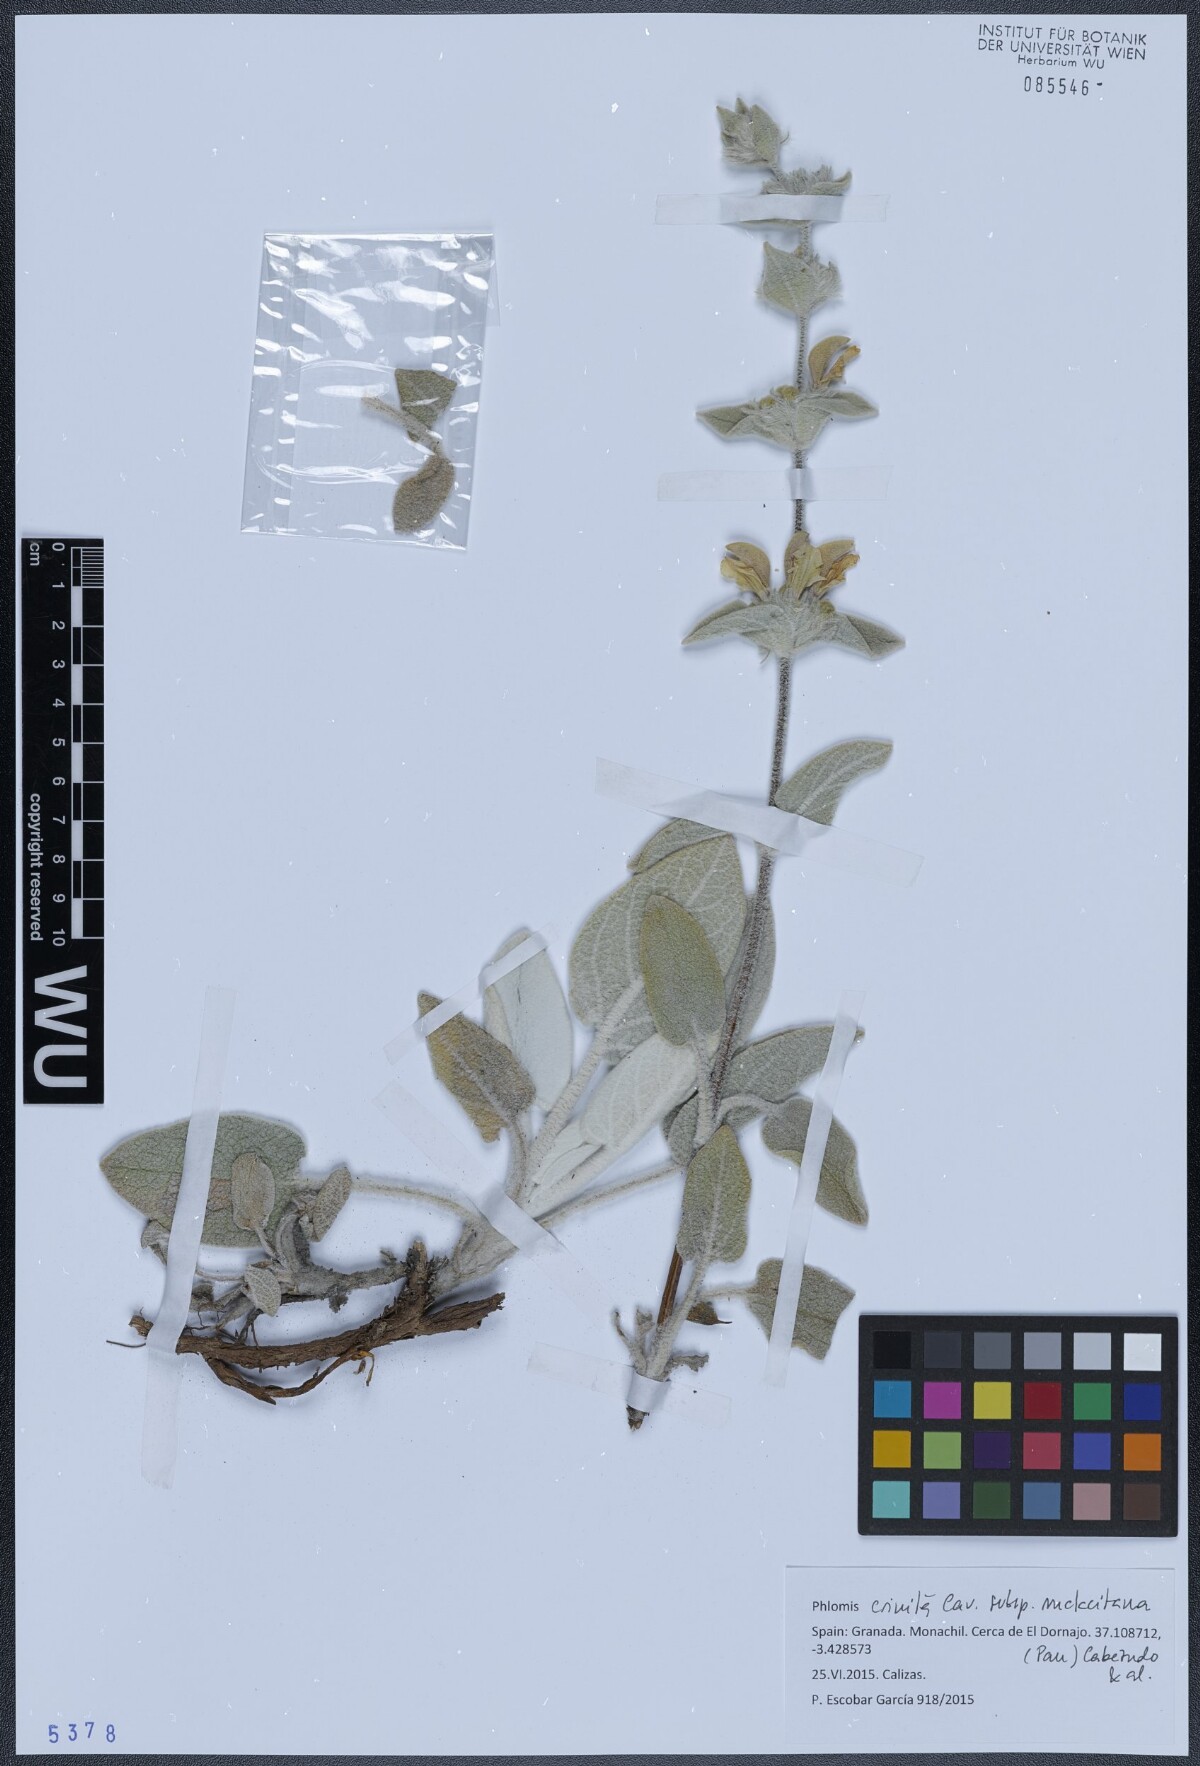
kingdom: Plantae
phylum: Tracheophyta
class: Magnoliopsida
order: Lamiales
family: Lamiaceae
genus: Phlomis
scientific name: Phlomis crinita
